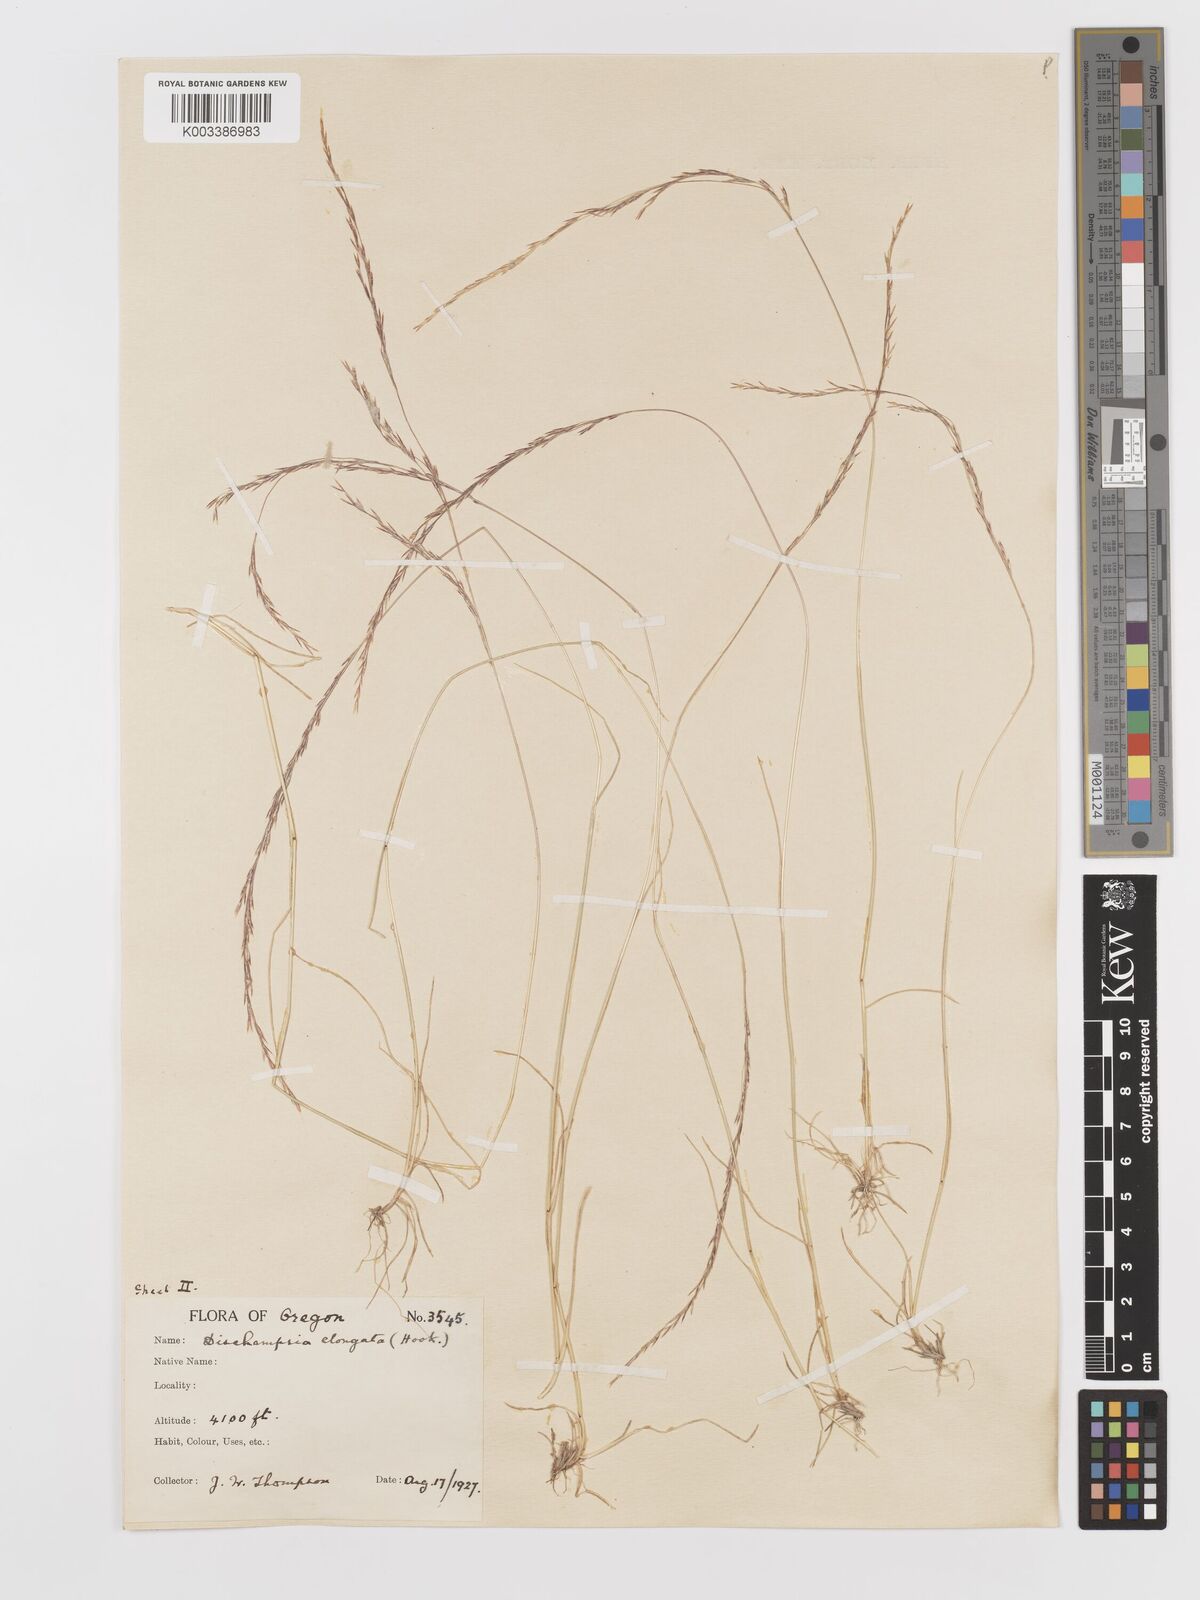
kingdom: Plantae
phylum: Tracheophyta
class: Liliopsida
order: Poales
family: Poaceae
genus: Deschampsia
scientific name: Deschampsia elongata
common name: Slender hairgrass
